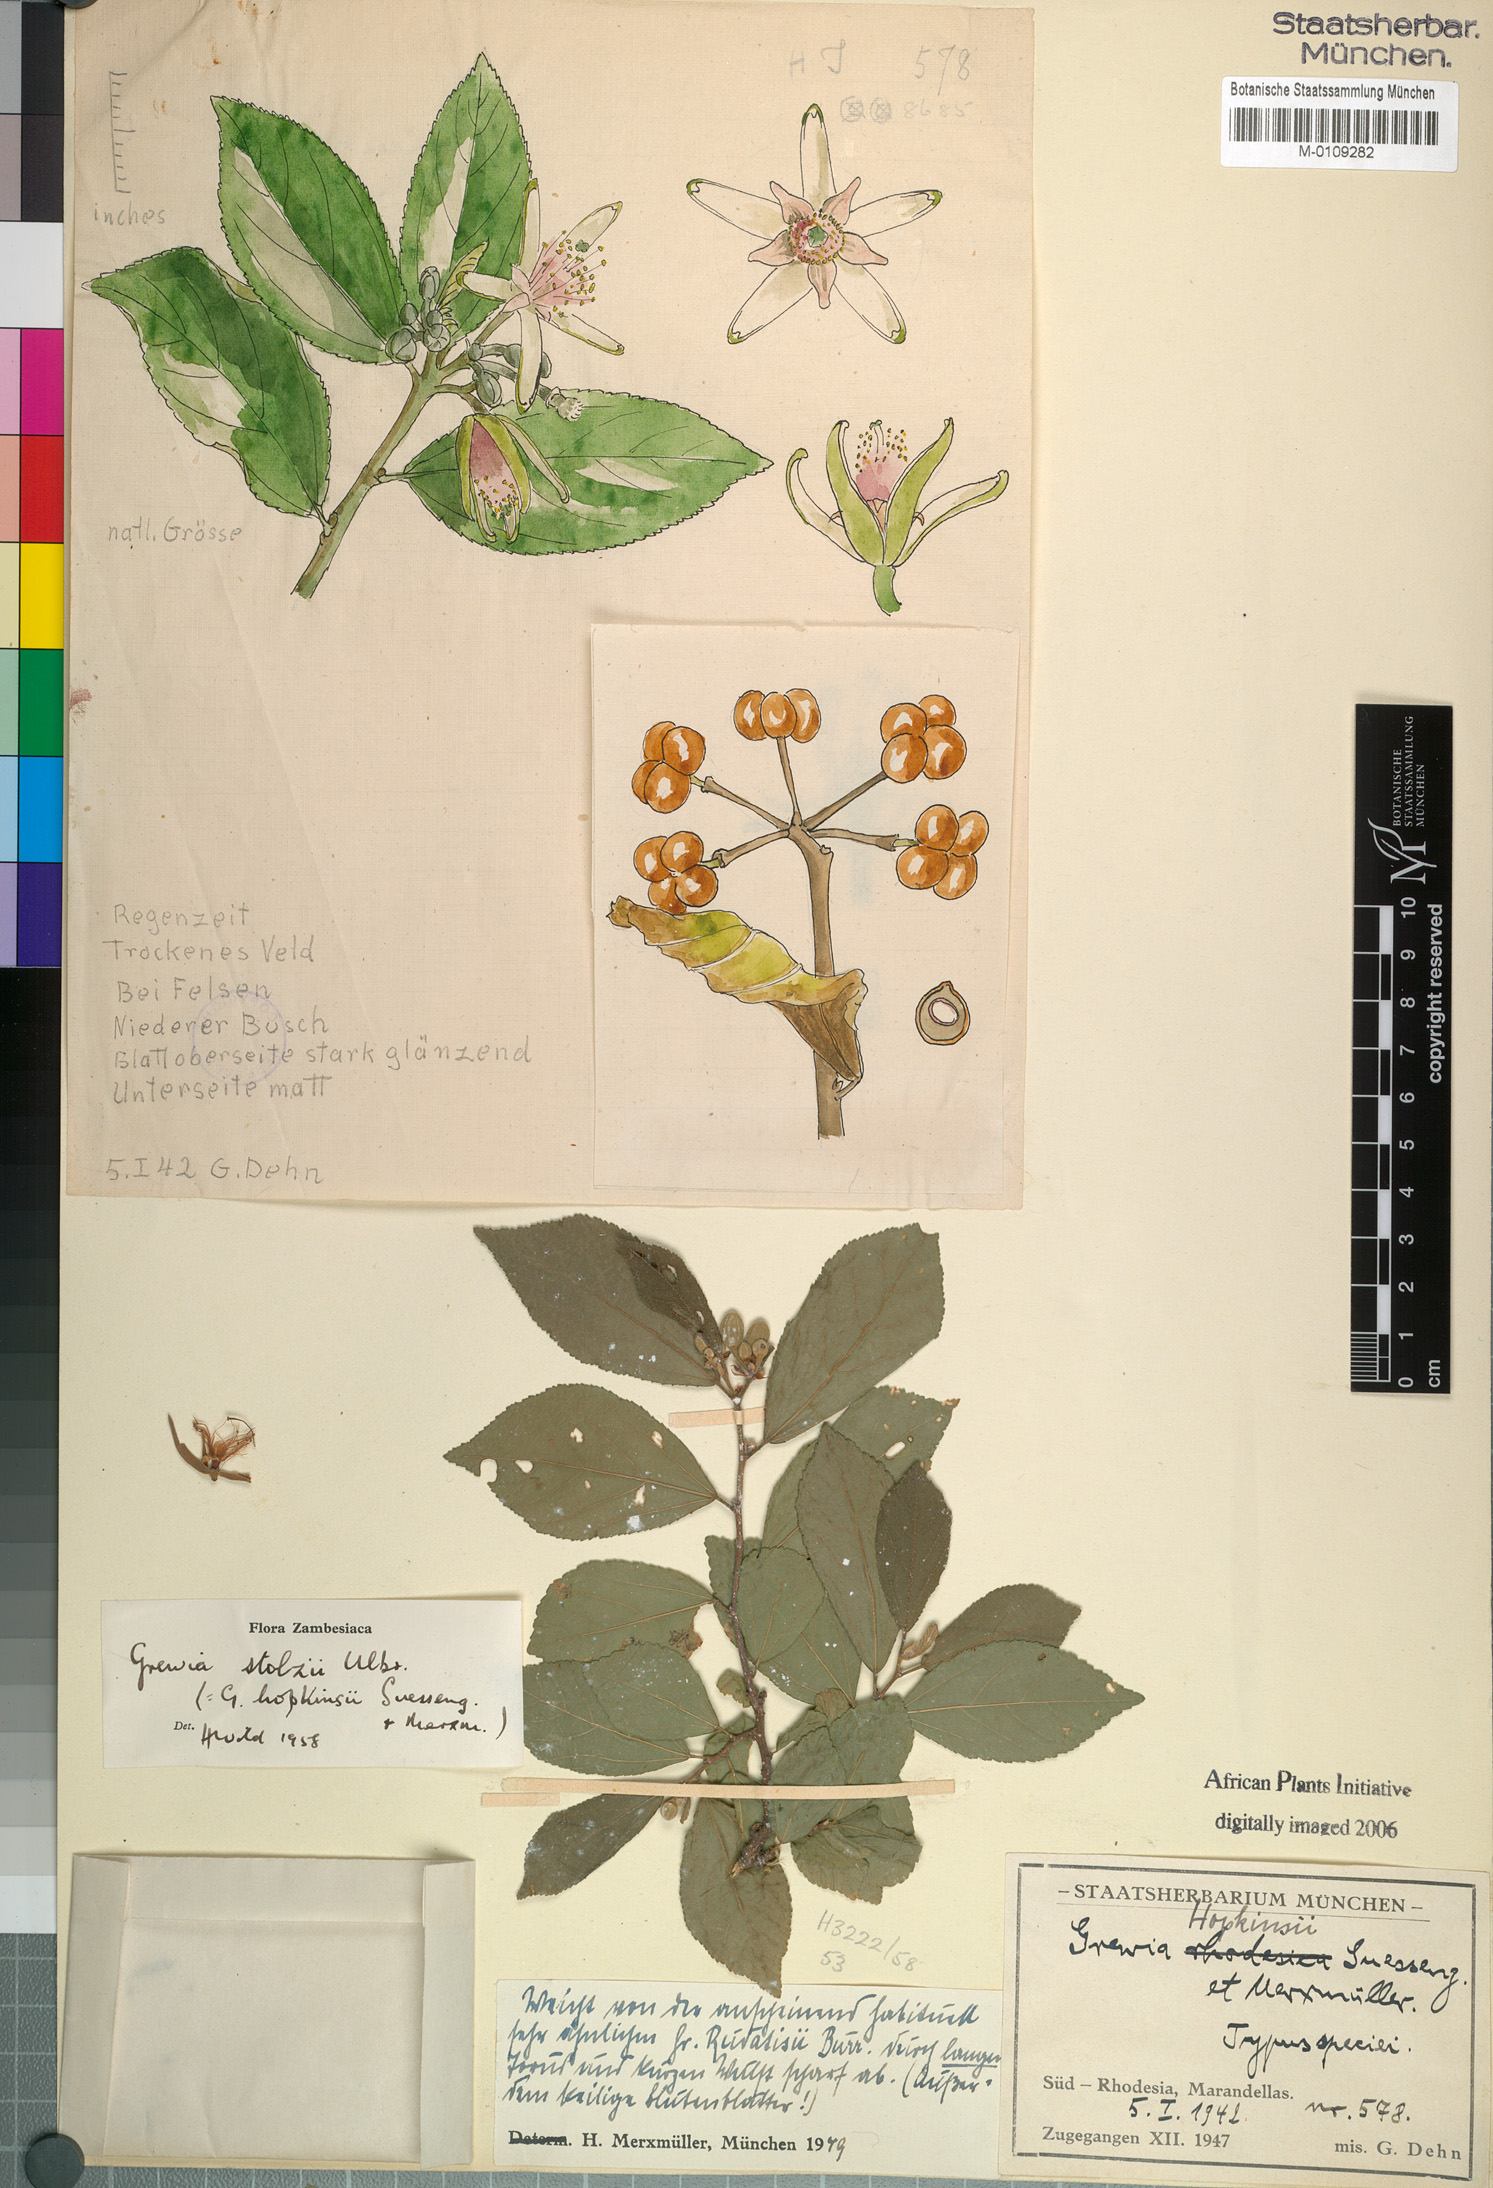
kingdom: Plantae
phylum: Tracheophyta
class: Magnoliopsida
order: Malvales
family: Malvaceae
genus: Grewia
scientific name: Grewia stolzii
